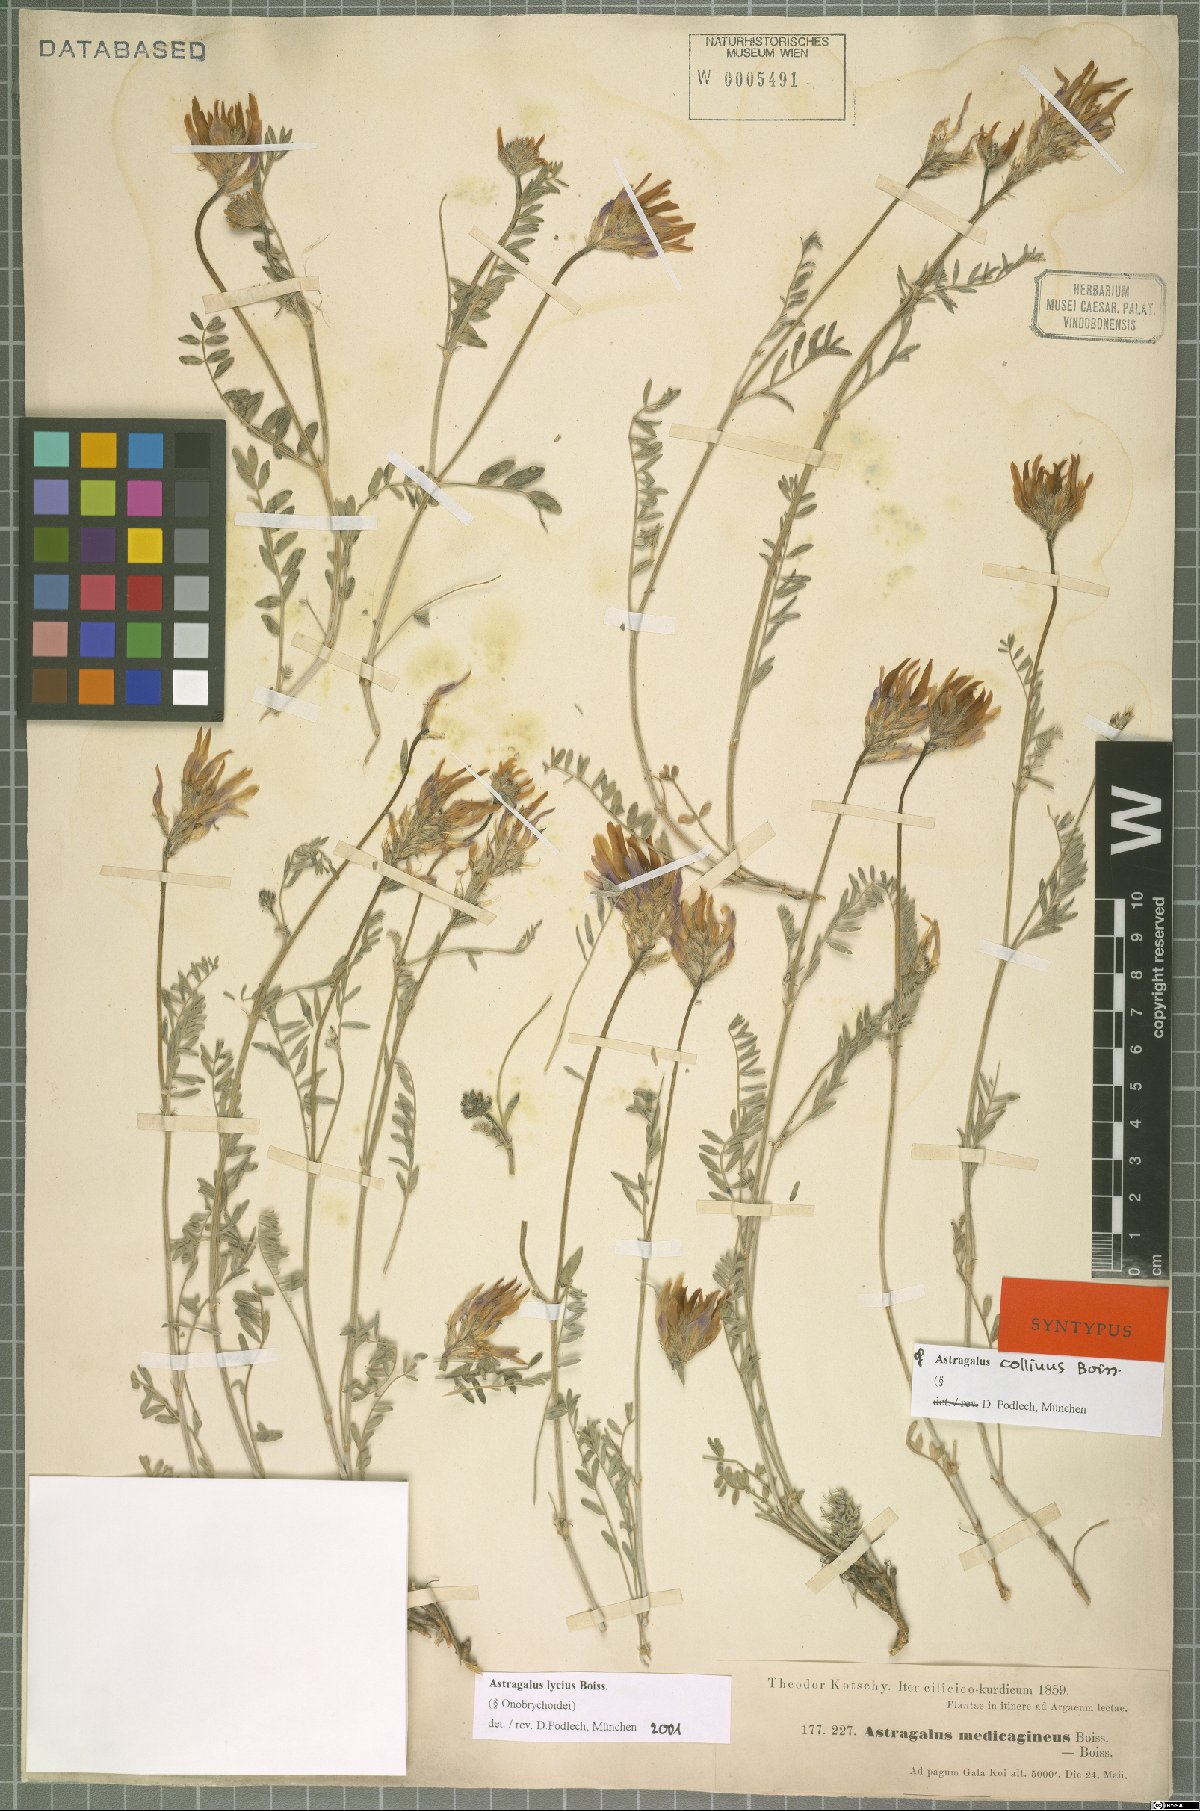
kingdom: Plantae
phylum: Tracheophyta
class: Magnoliopsida
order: Fabales
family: Fabaceae
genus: Astragalus
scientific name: Astragalus lycius
